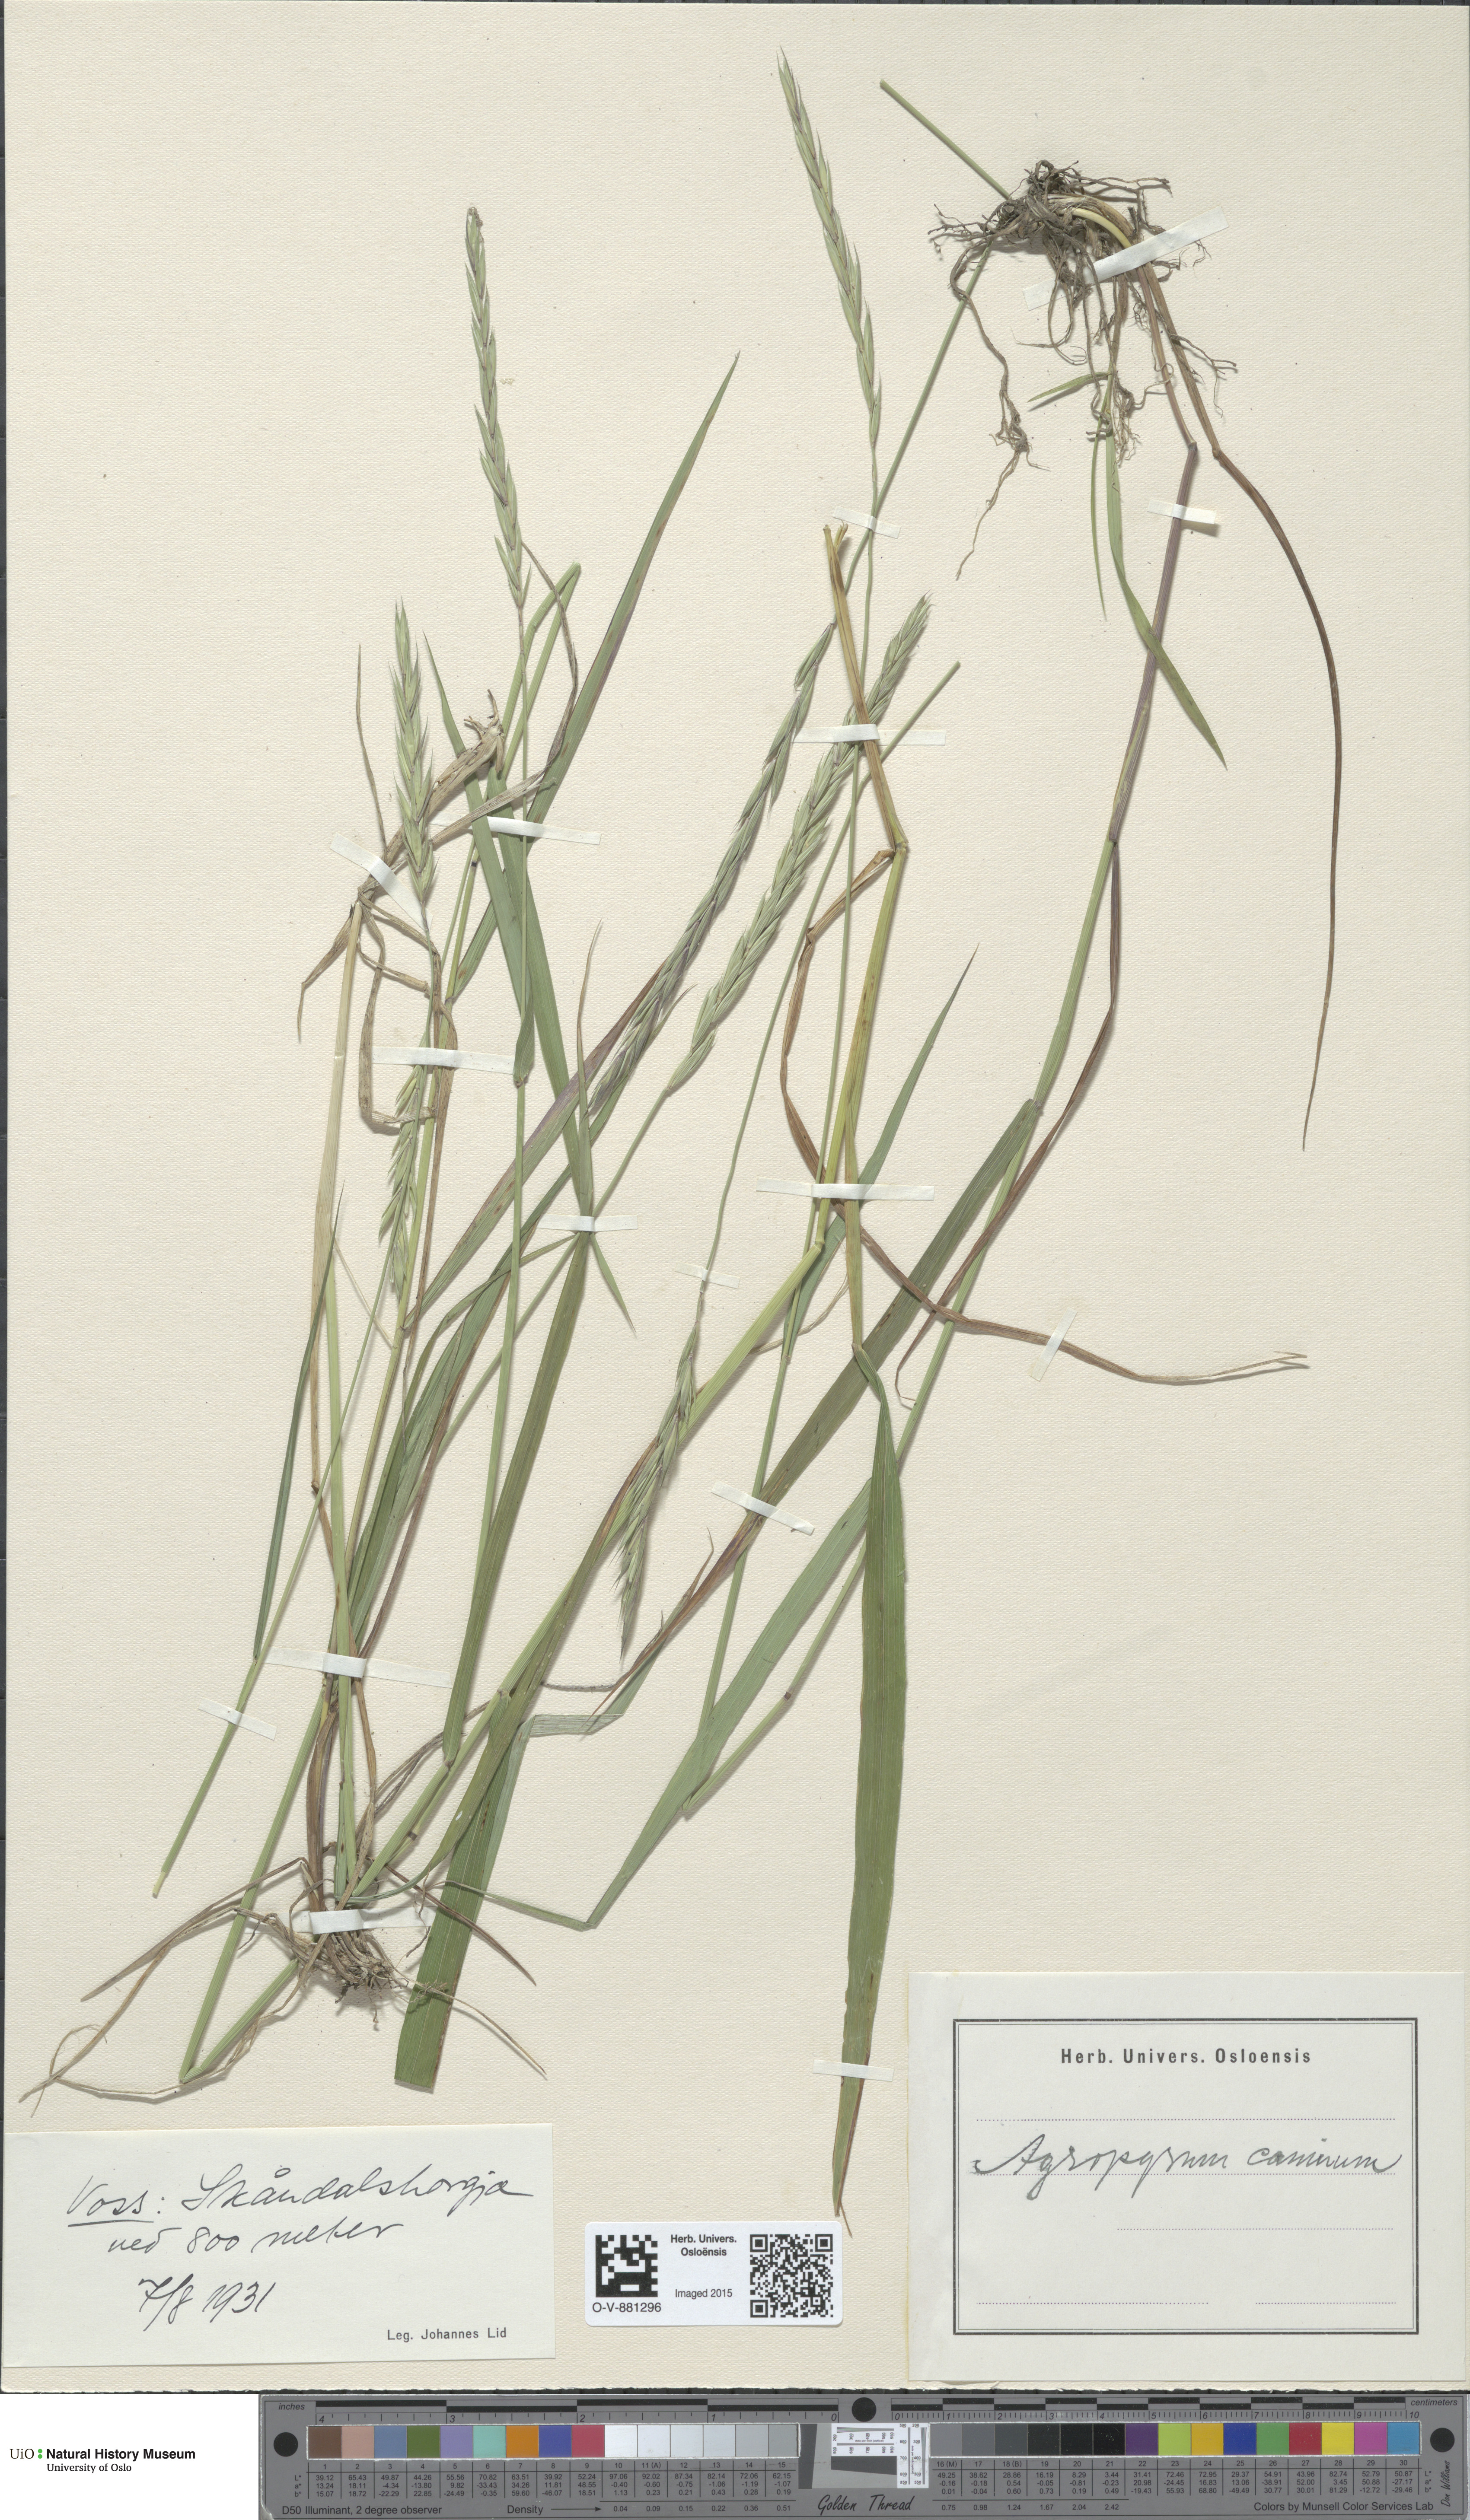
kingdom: Plantae
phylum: Tracheophyta
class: Liliopsida
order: Poales
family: Poaceae
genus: Elymus
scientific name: Elymus caninus
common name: Bearded couch
